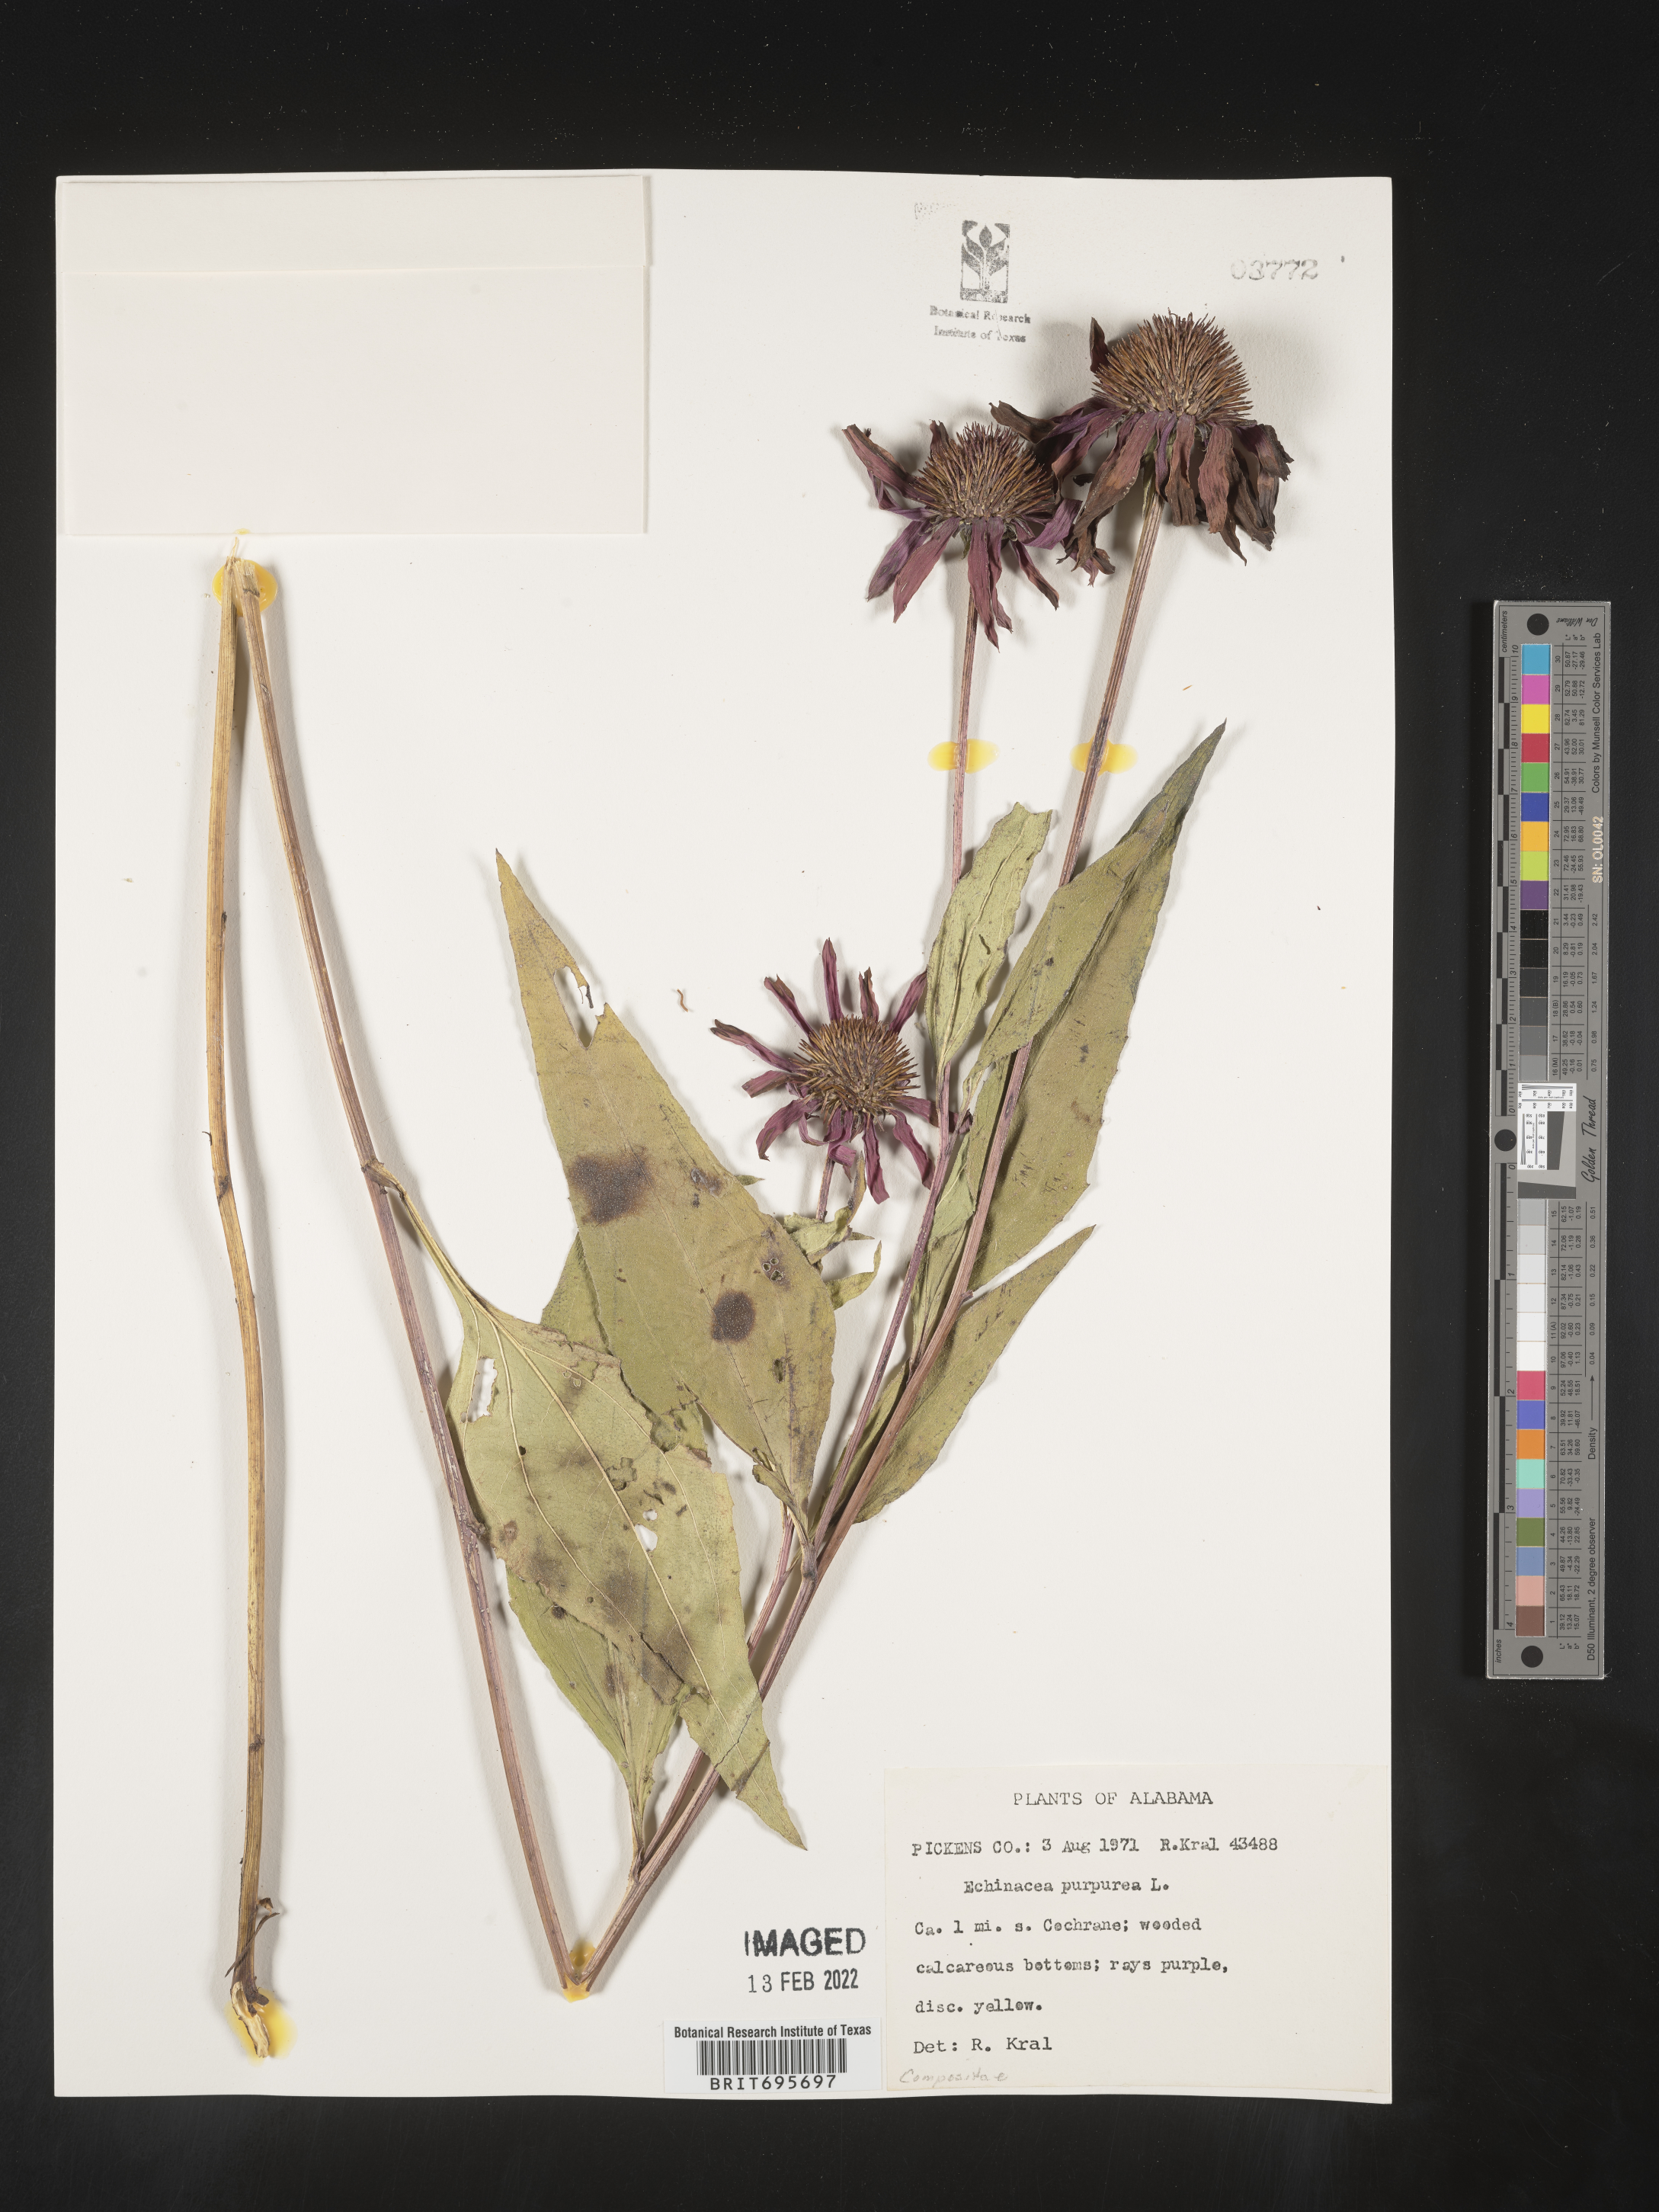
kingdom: Plantae
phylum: Tracheophyta
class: Magnoliopsida
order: Asterales
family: Asteraceae
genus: Echinacea
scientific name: Echinacea purpurea
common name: Broad-leaved purple coneflower
